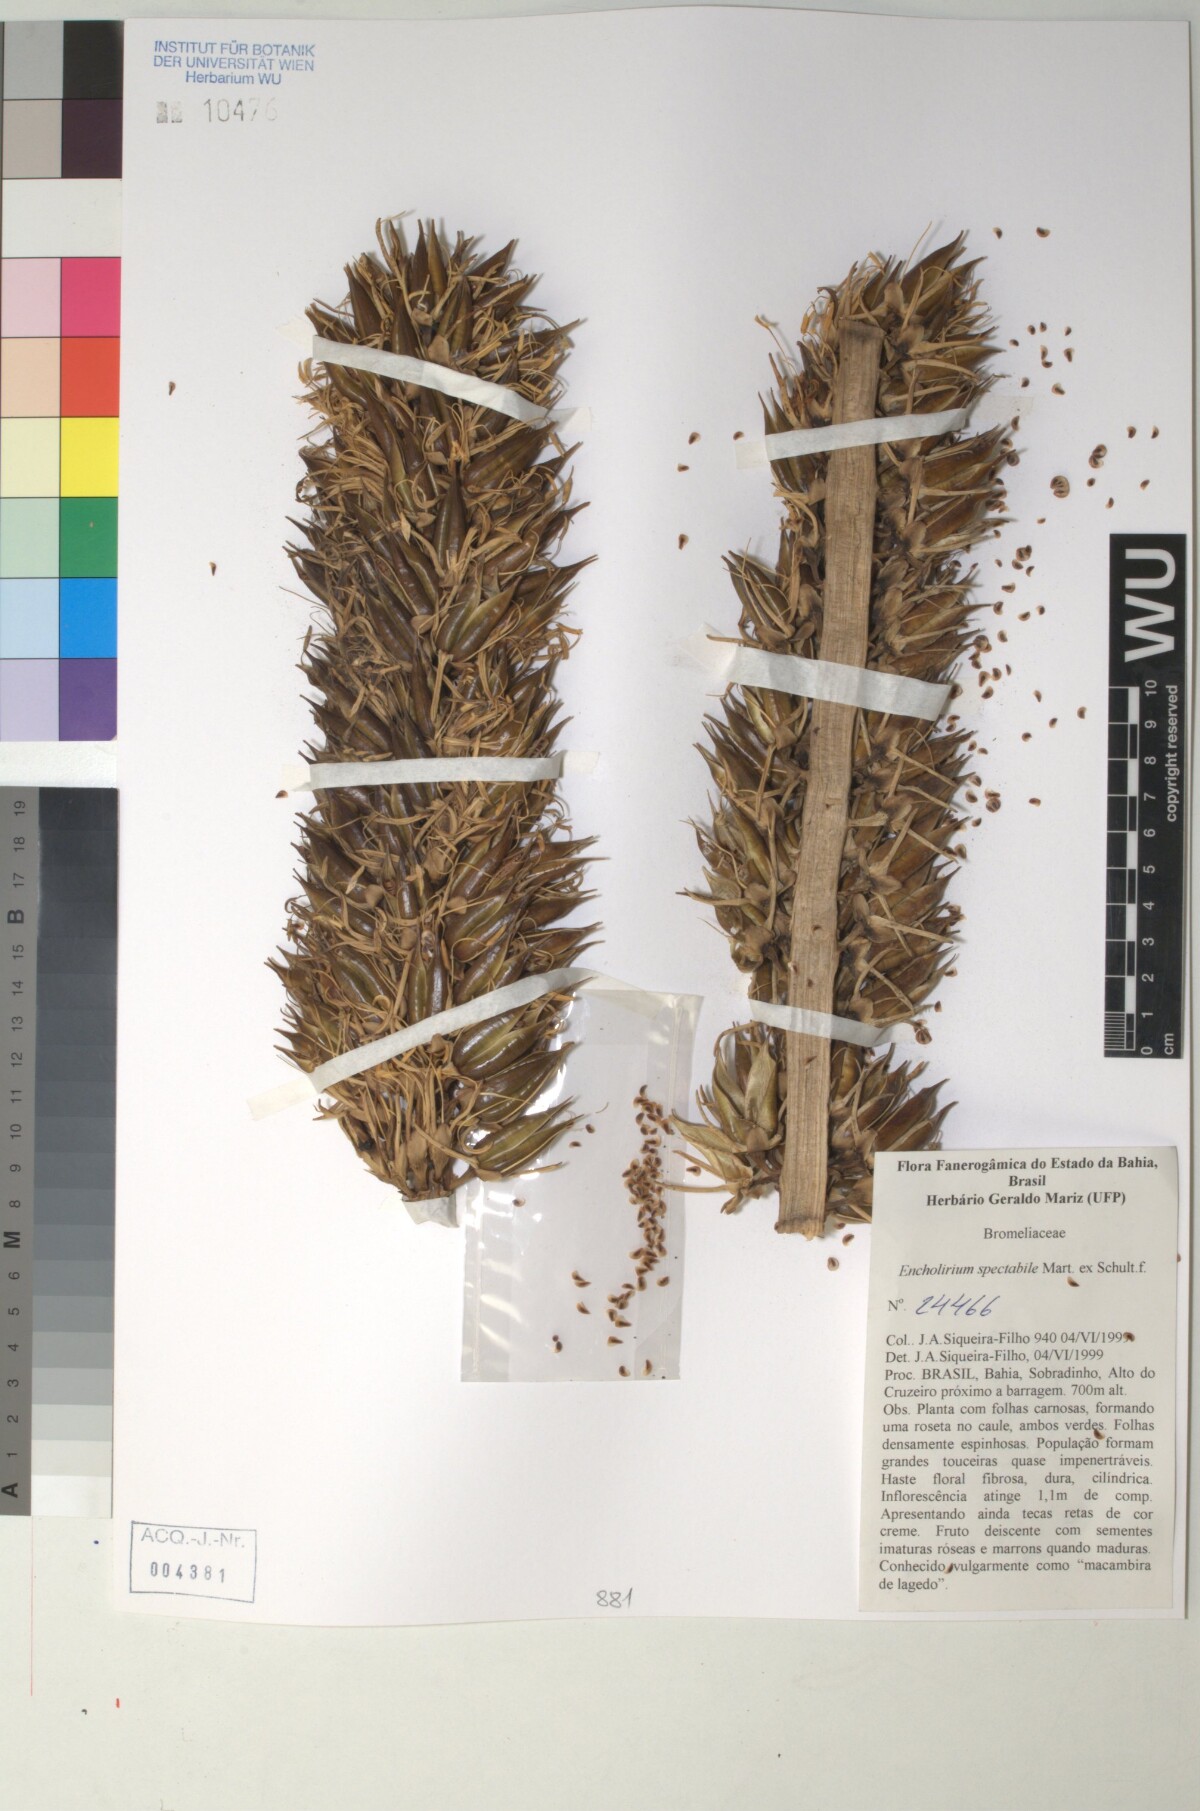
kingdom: Plantae
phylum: Tracheophyta
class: Liliopsida
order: Poales
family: Bromeliaceae
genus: Encholirium
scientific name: Encholirium
